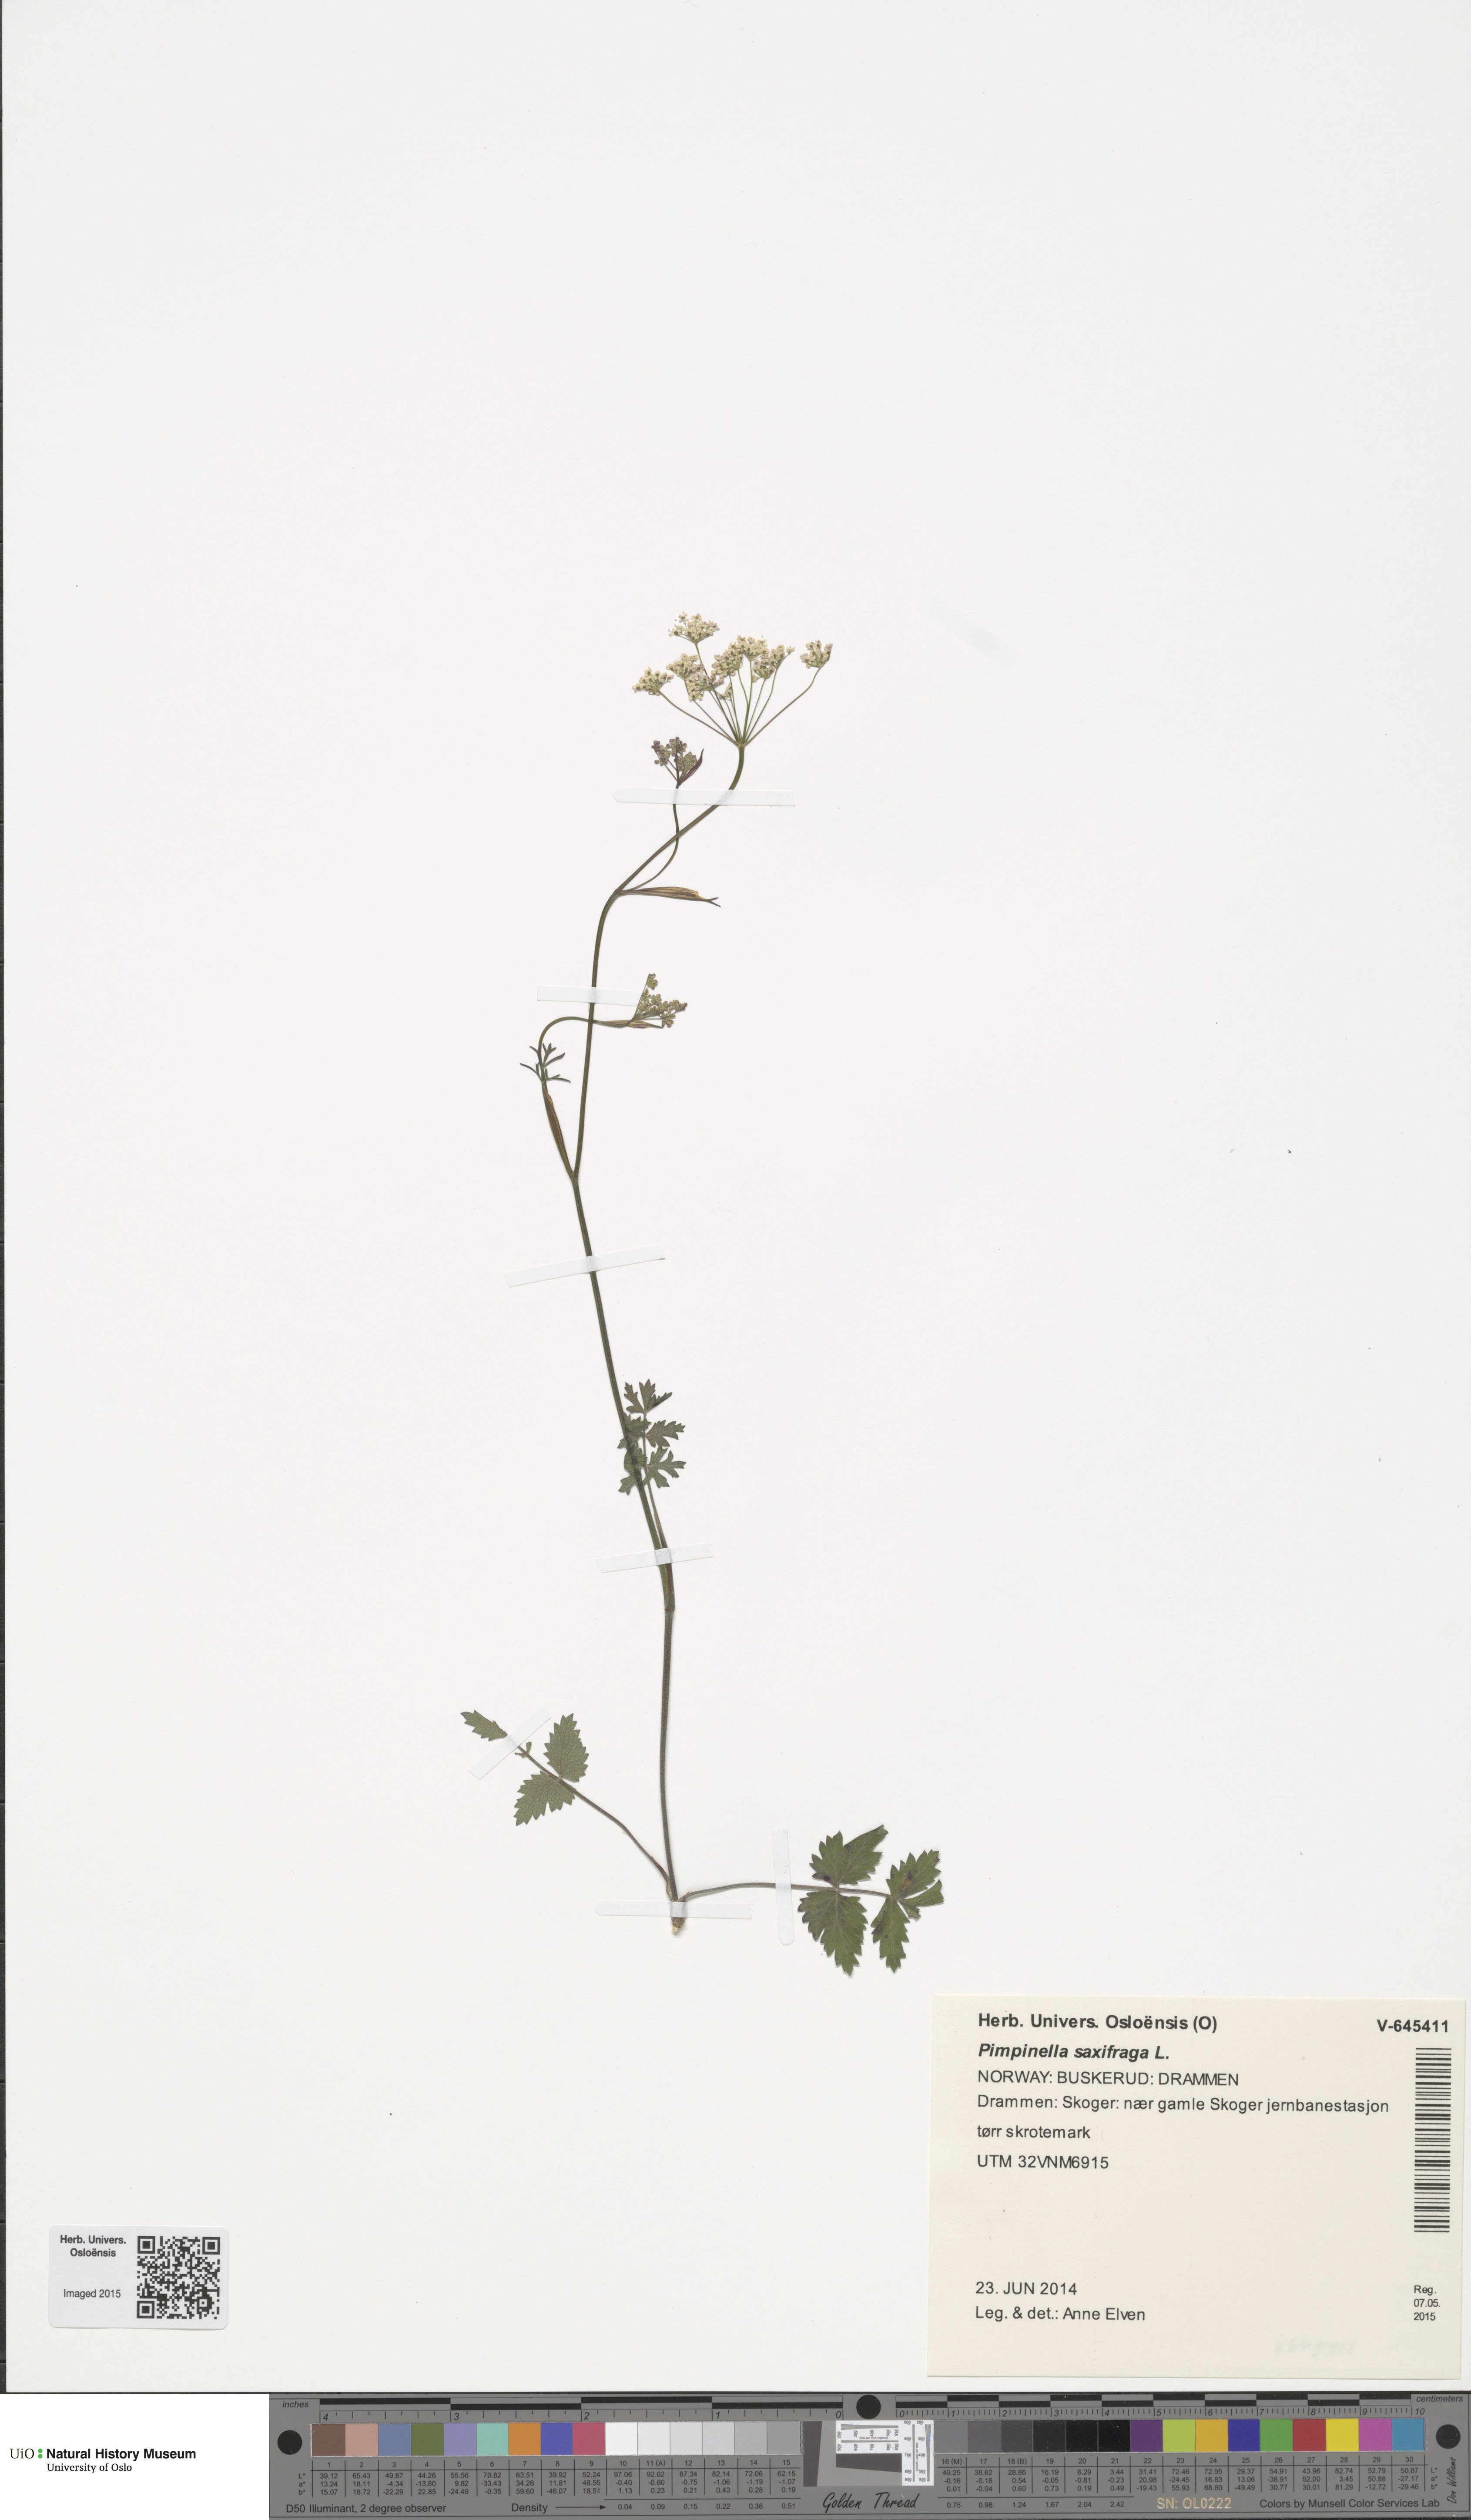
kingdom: Plantae
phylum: Tracheophyta
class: Magnoliopsida
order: Apiales
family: Apiaceae
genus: Pimpinella
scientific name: Pimpinella saxifraga
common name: Burnet-saxifrage
